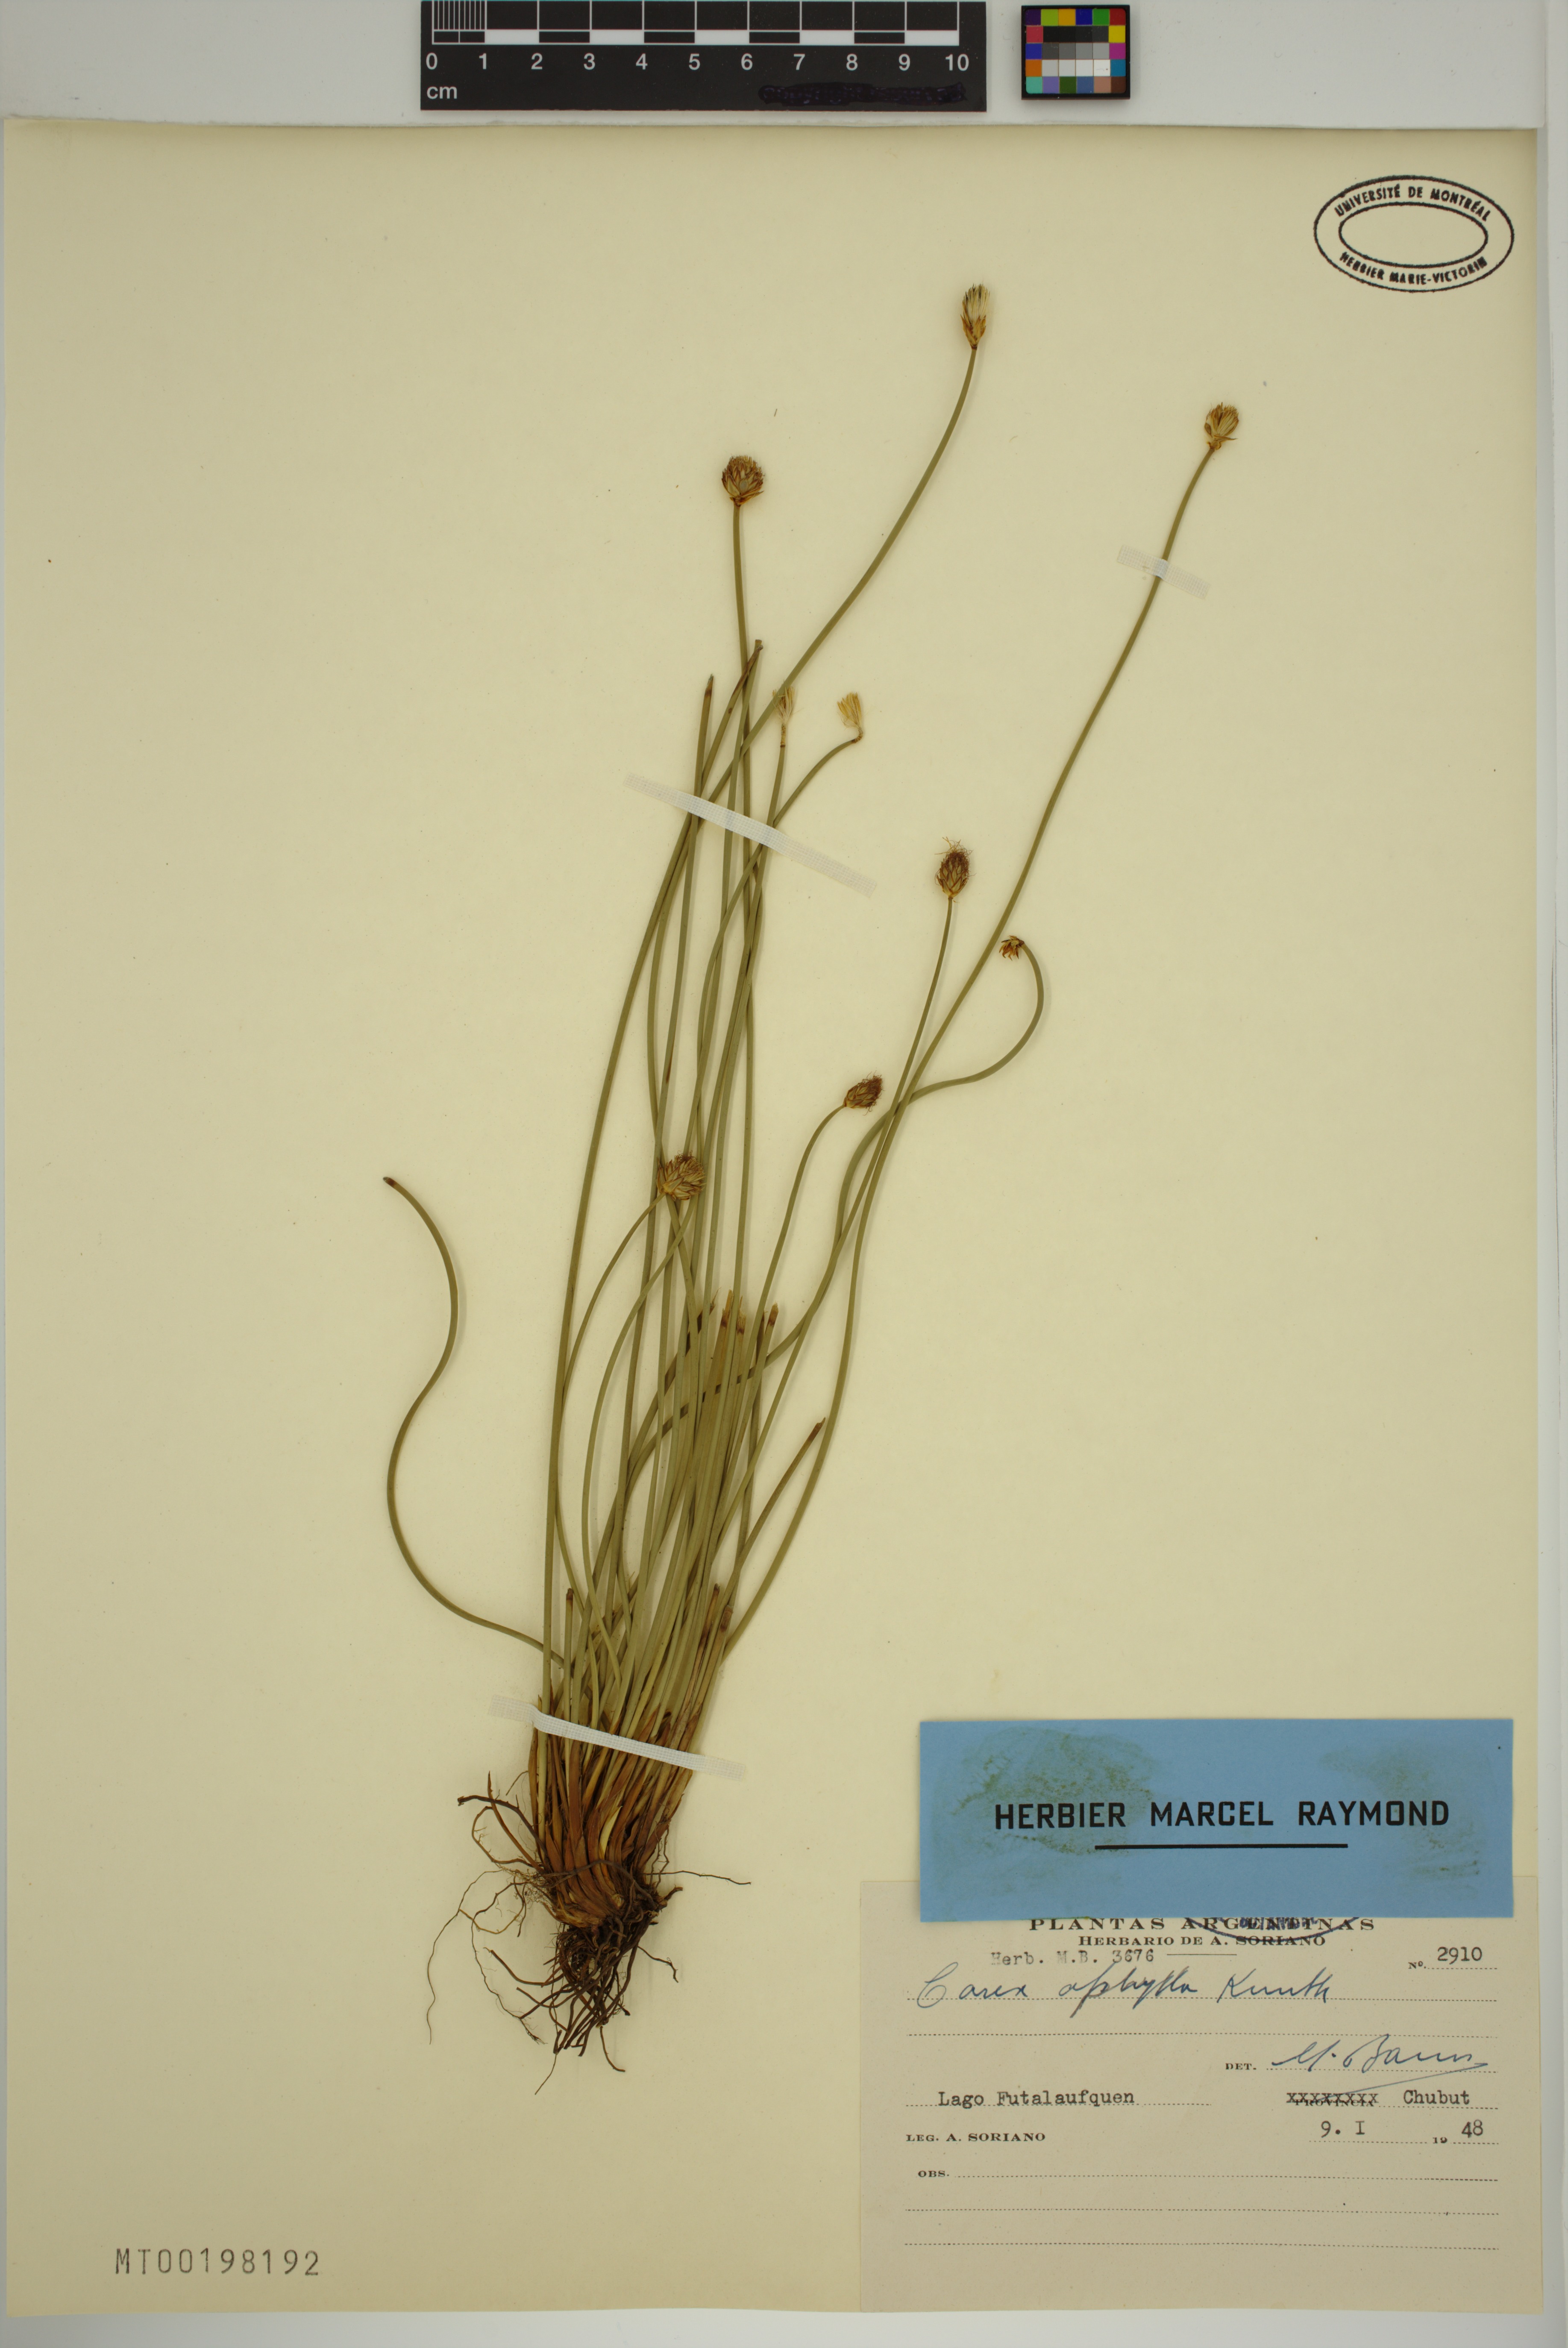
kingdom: Plantae
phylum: Tracheophyta
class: Liliopsida
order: Poales
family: Cyperaceae
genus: Carex
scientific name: Carex aphylla
